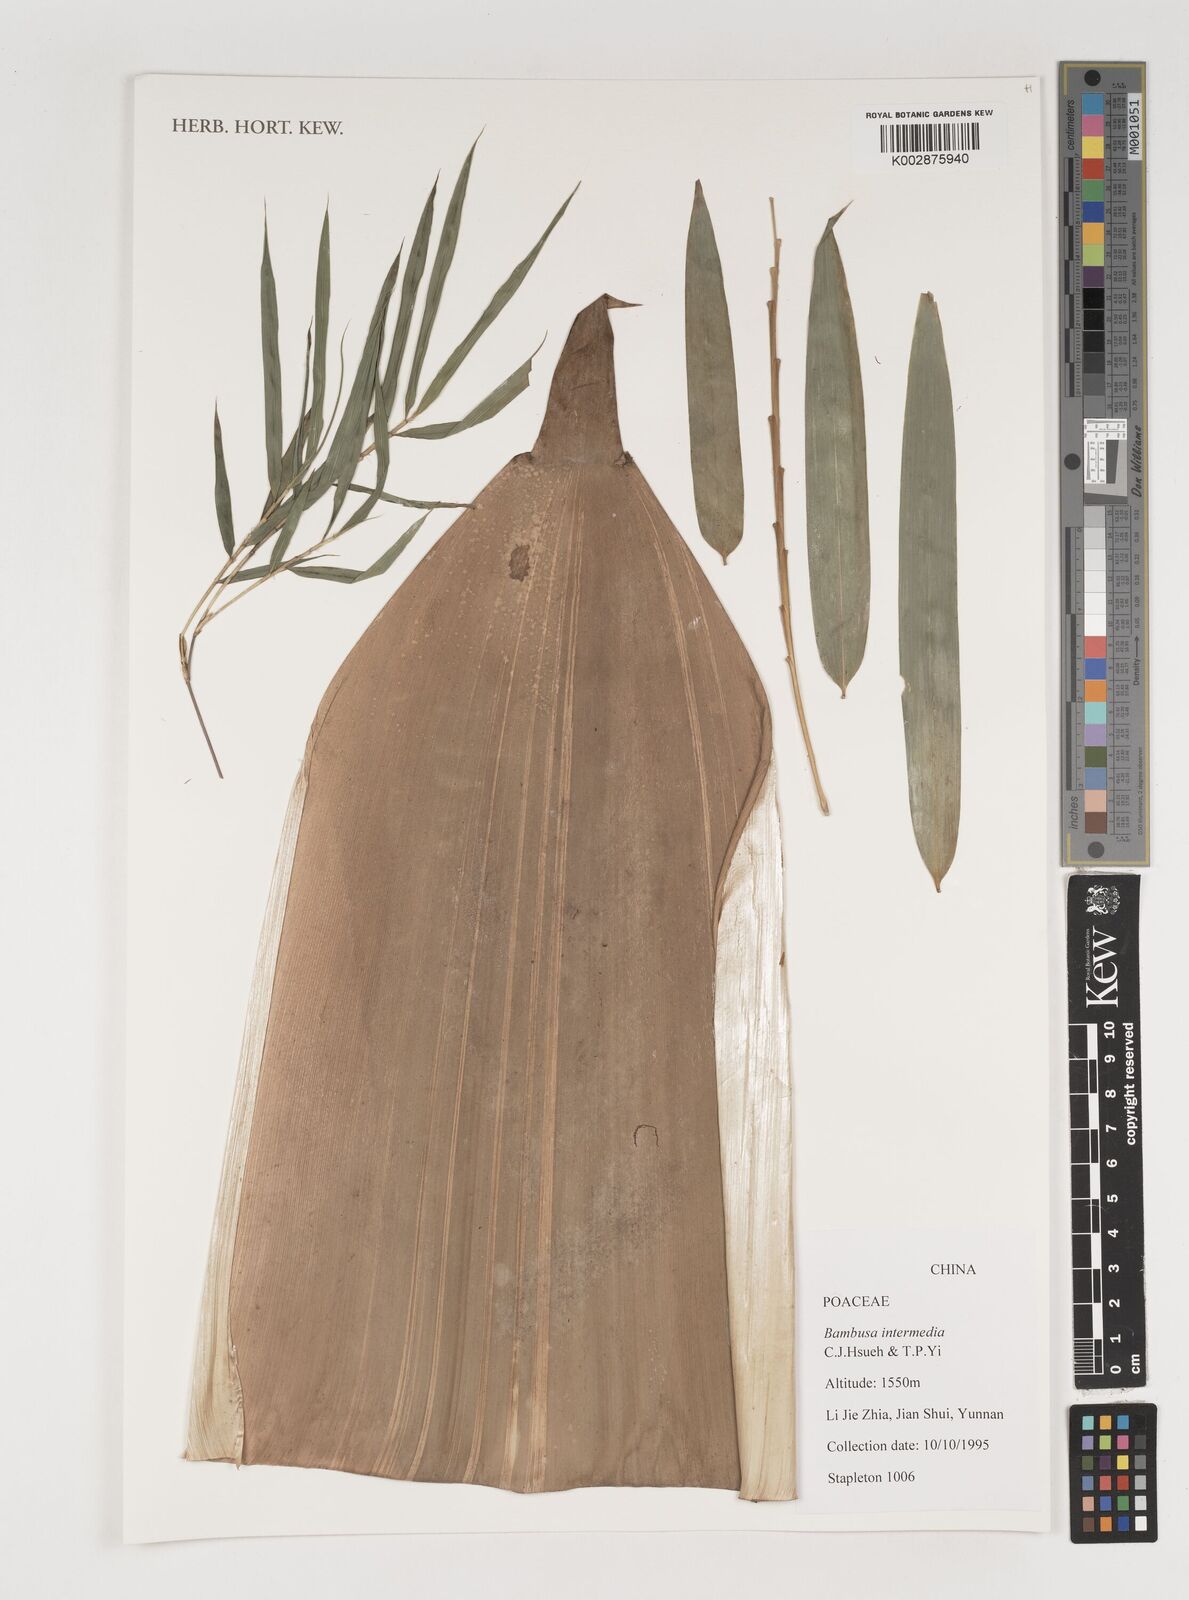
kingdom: Plantae
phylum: Tracheophyta
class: Liliopsida
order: Poales
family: Poaceae
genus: Bambusa
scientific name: Bambusa intermedia
